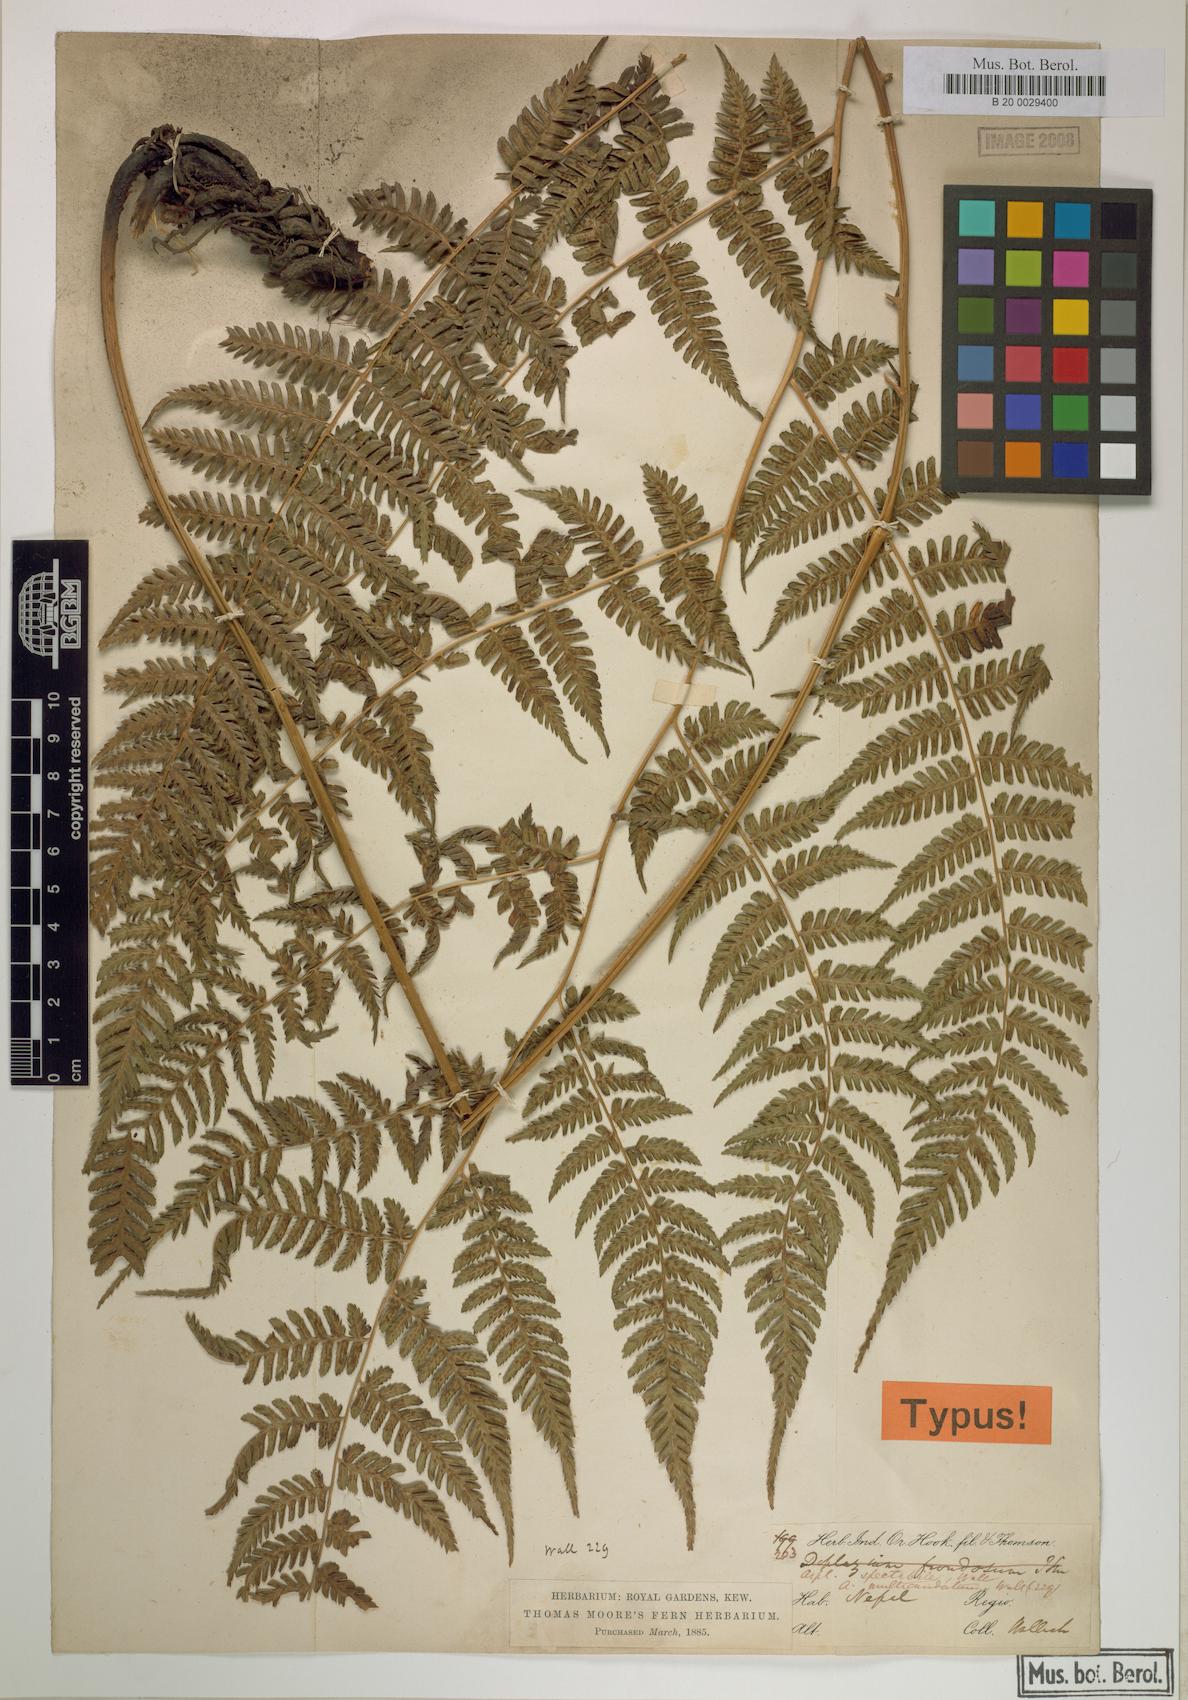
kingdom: Plantae
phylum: Tracheophyta
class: Polypodiopsida
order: Polypodiales
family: Athyriaceae
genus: Diplazium
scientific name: Diplazium spectabile
